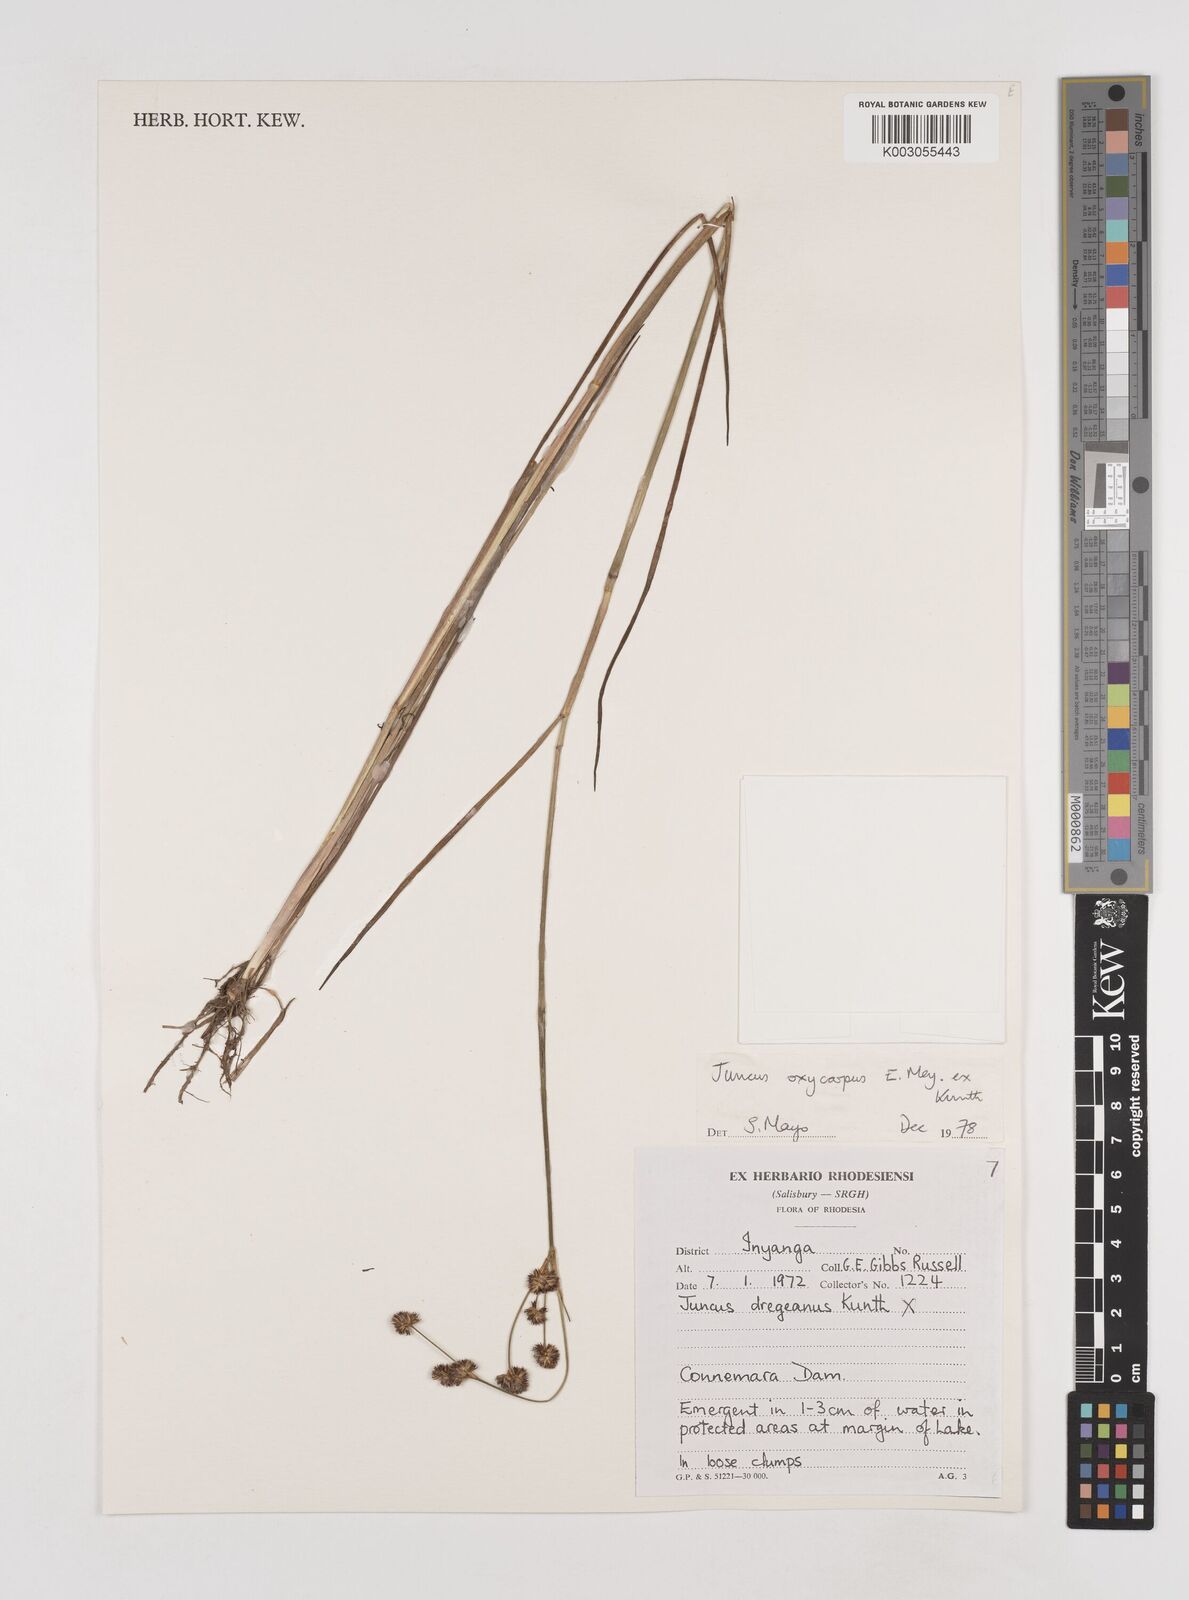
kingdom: Plantae
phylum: Tracheophyta
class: Liliopsida
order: Poales
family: Juncaceae
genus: Juncus
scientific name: Juncus oxycarpus
